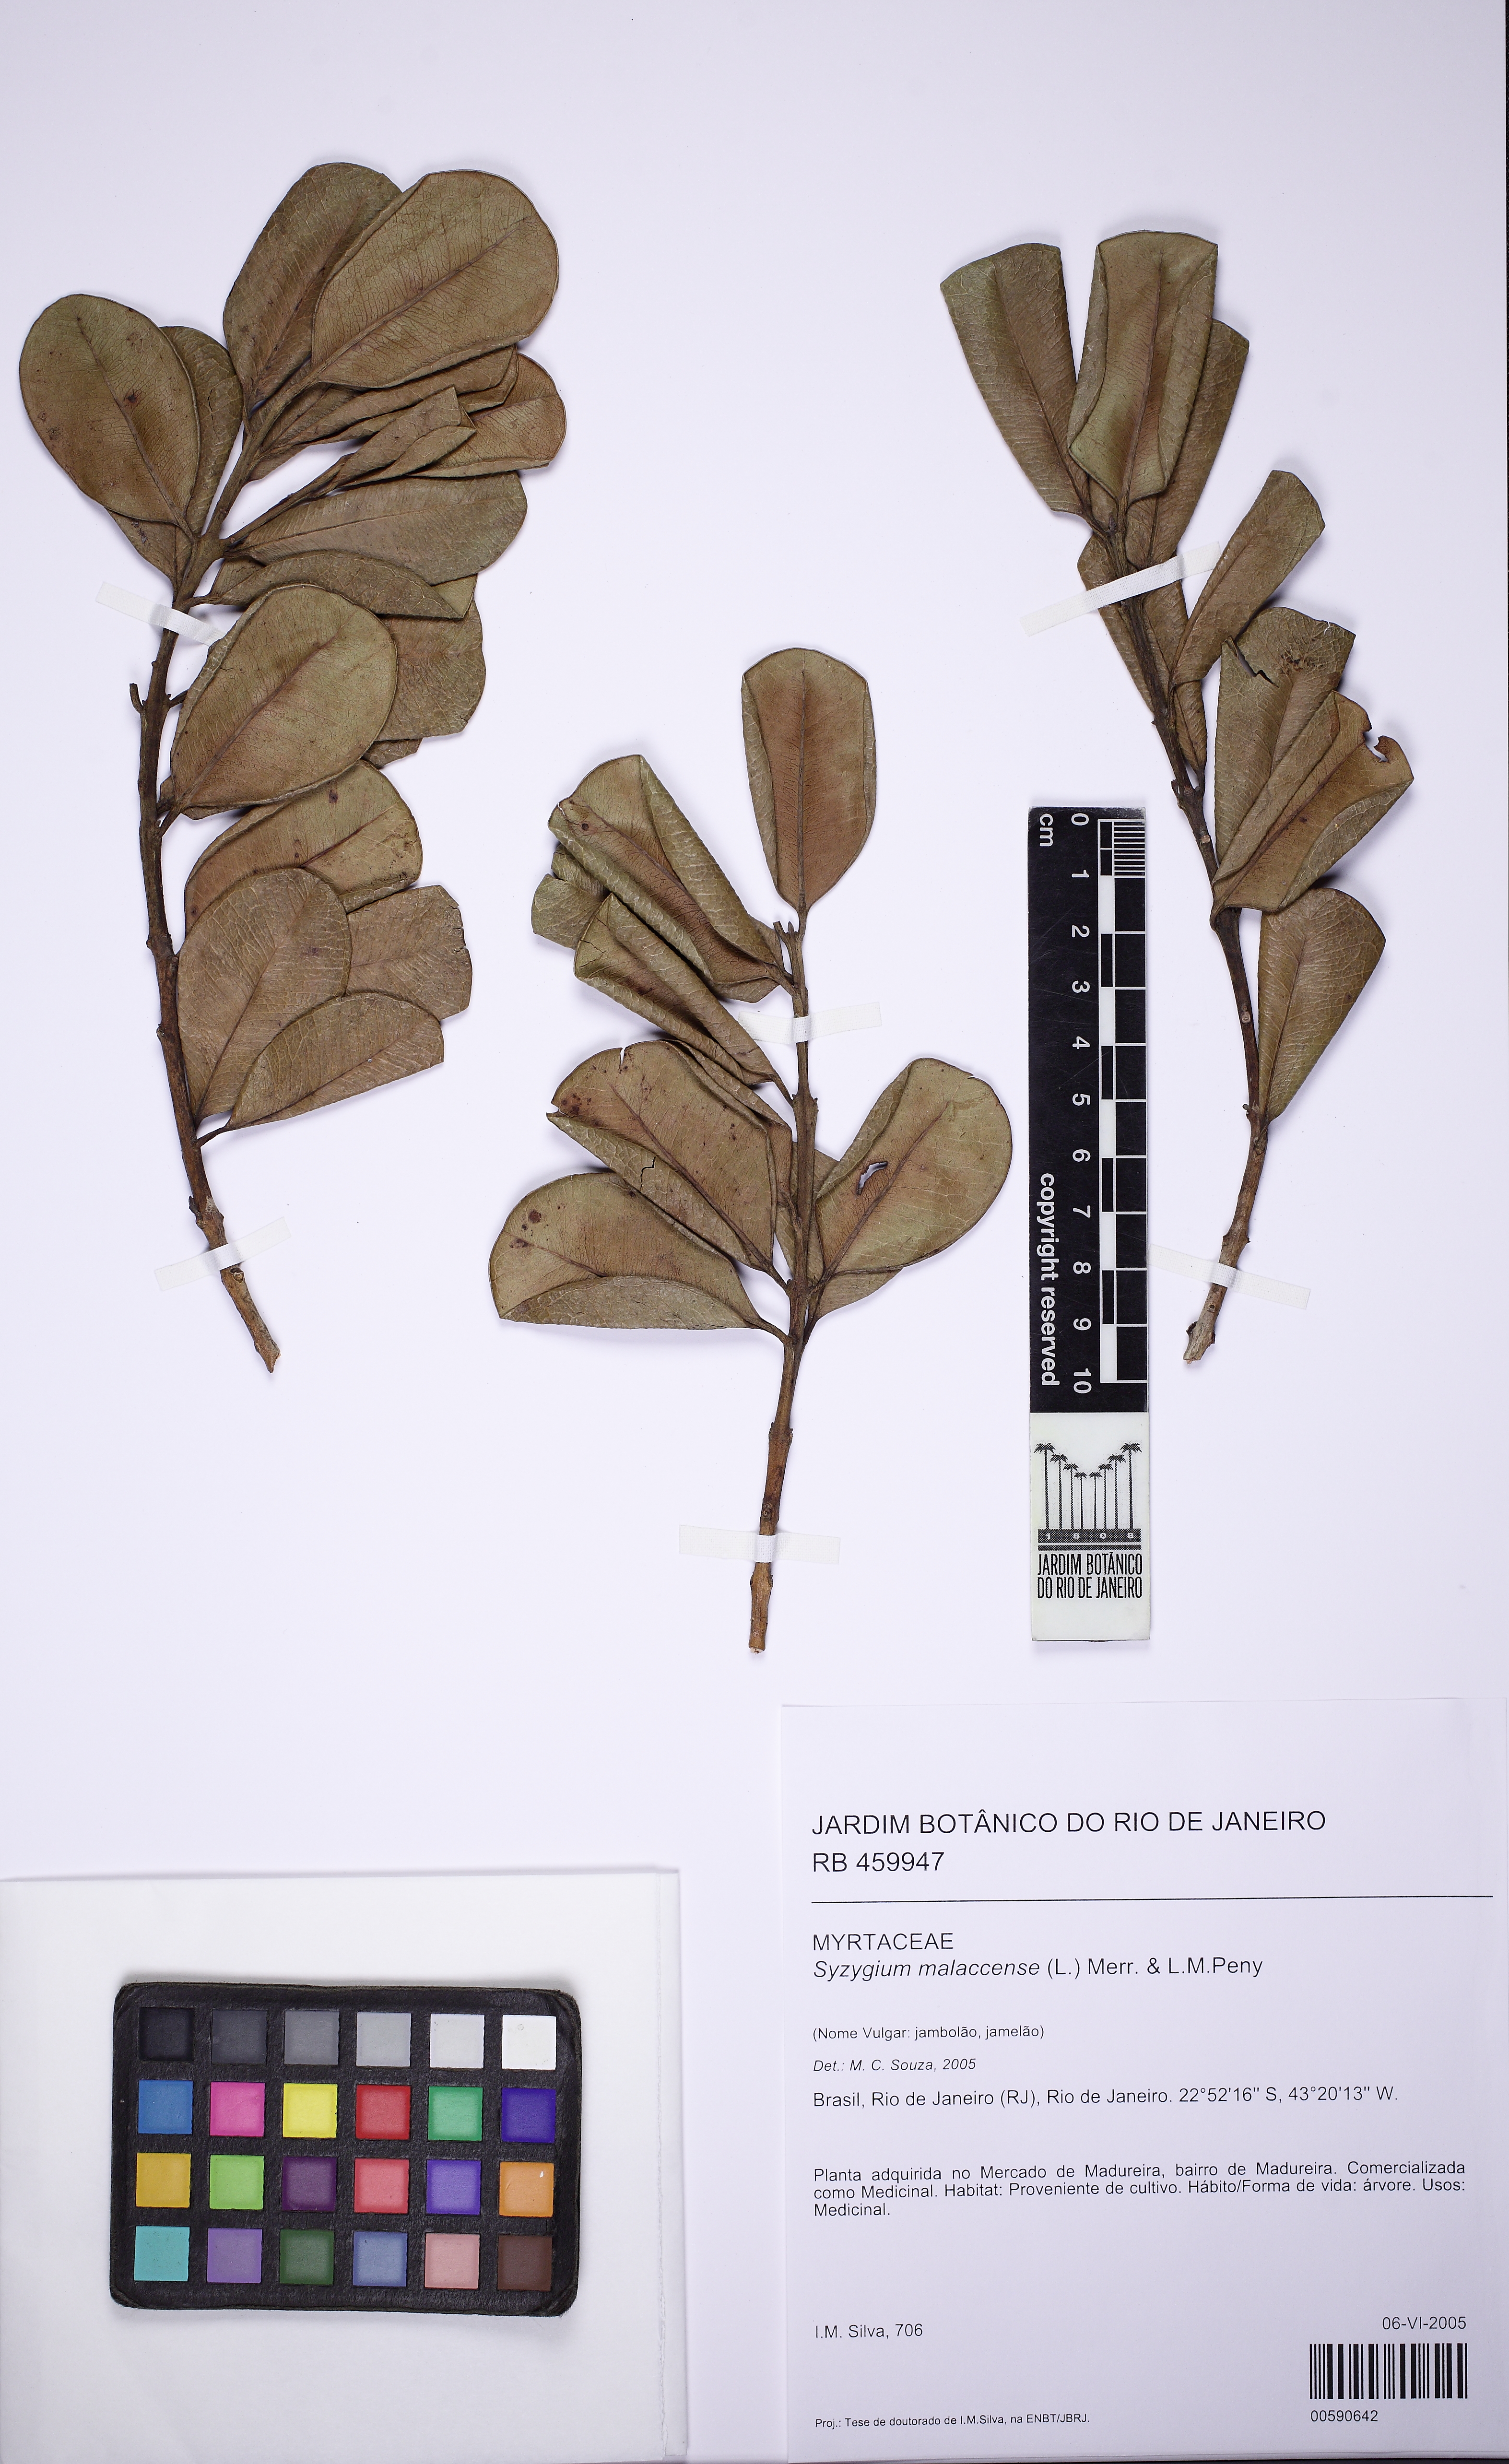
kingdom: Plantae
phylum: Tracheophyta
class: Magnoliopsida
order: Myrtales
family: Myrtaceae
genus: Syzygium
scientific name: Syzygium malaccense
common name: Malaysian apple
